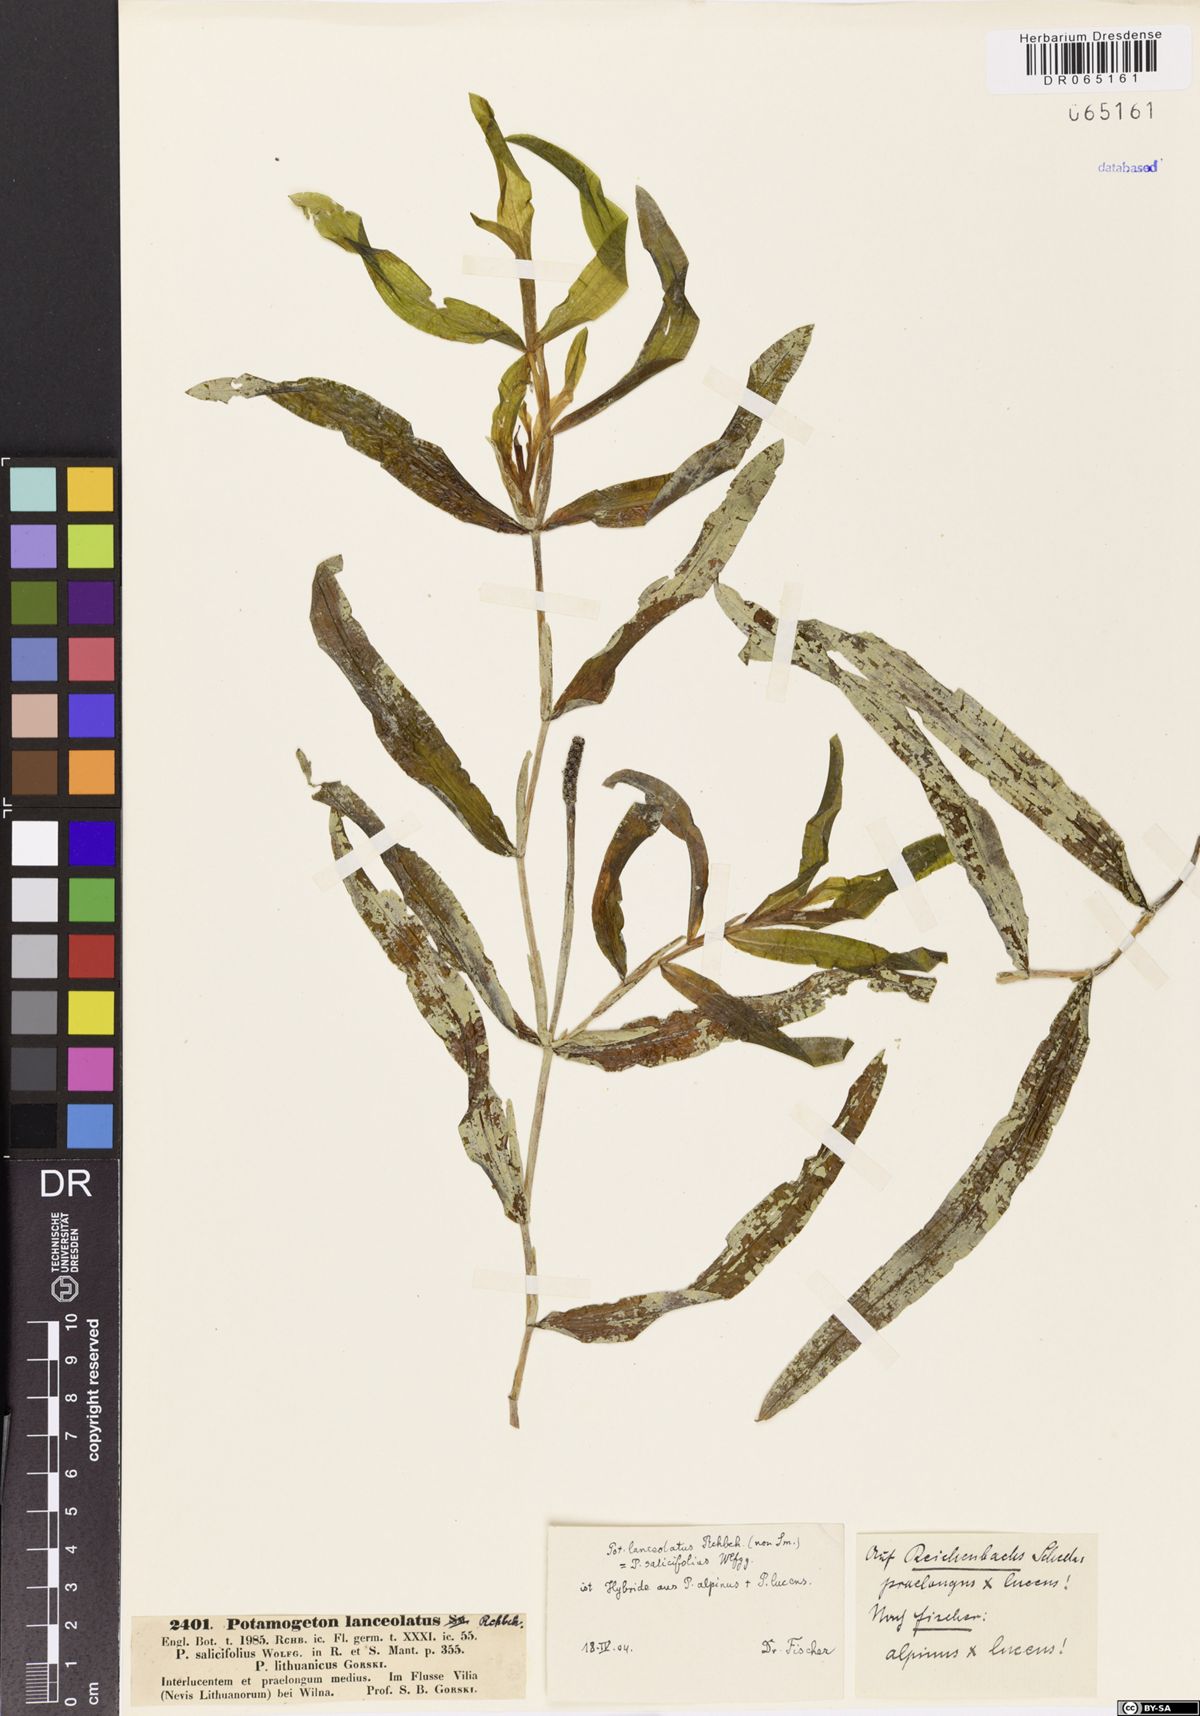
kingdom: Plantae
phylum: Tracheophyta
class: Liliopsida
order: Alismatales
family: Potamogetonaceae
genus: Potamogeton
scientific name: Potamogeton salicifolius
